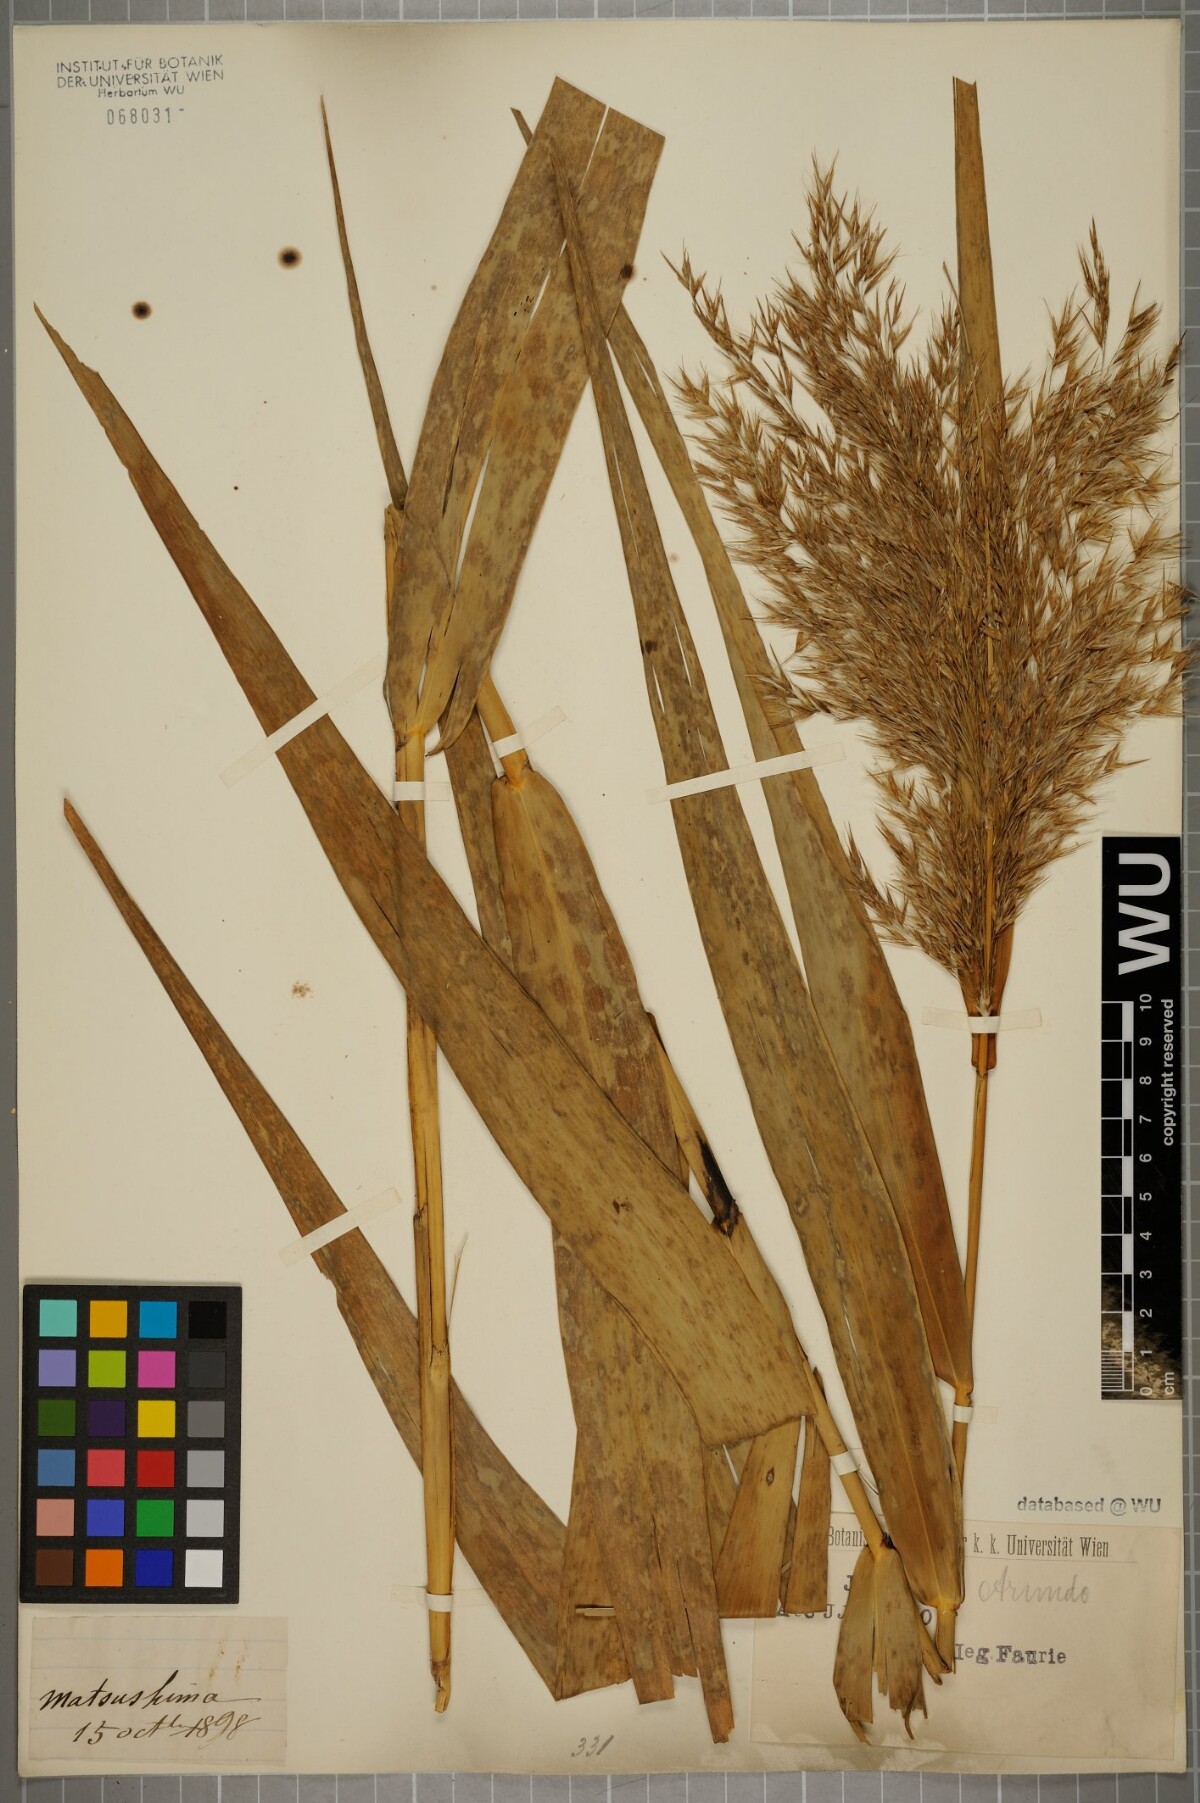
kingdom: Plantae
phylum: Tracheophyta
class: Liliopsida
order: Poales
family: Poaceae
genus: Arundo
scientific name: Arundo
